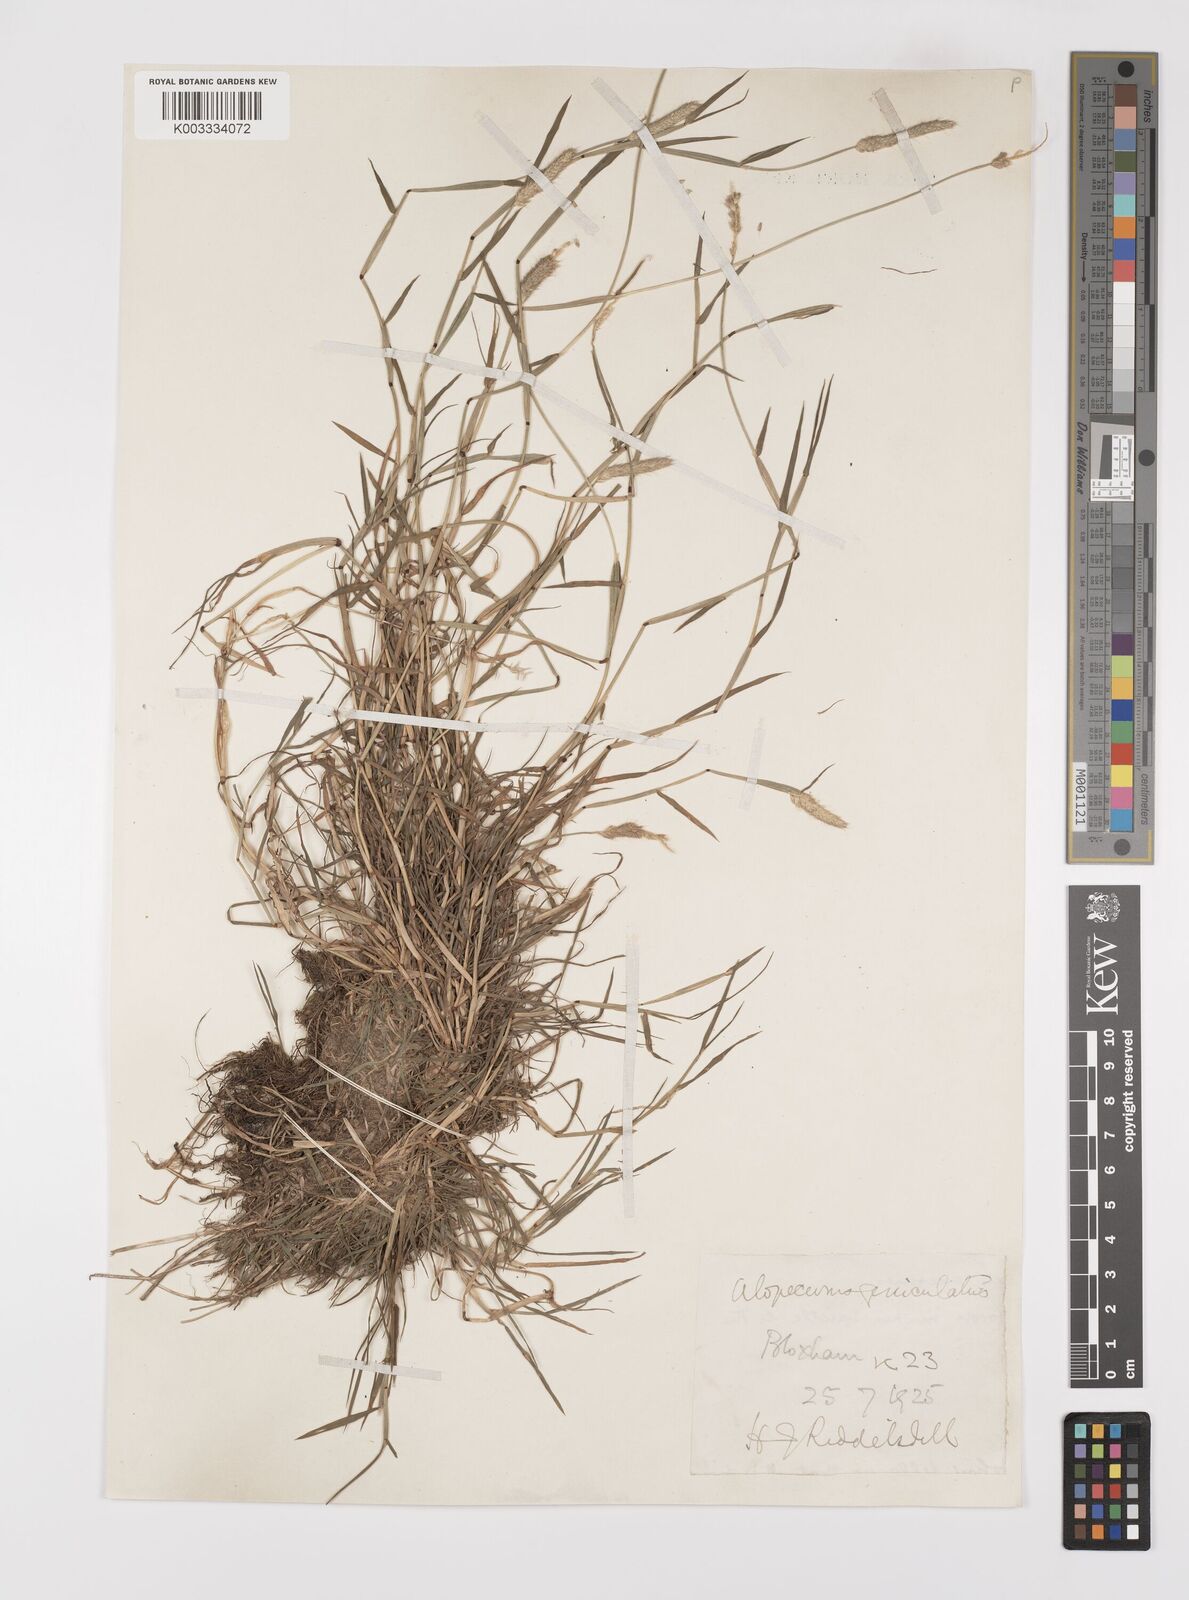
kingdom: Plantae
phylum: Tracheophyta
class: Liliopsida
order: Poales
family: Poaceae
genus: Alopecurus
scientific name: Alopecurus geniculatus
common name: Water foxtail
